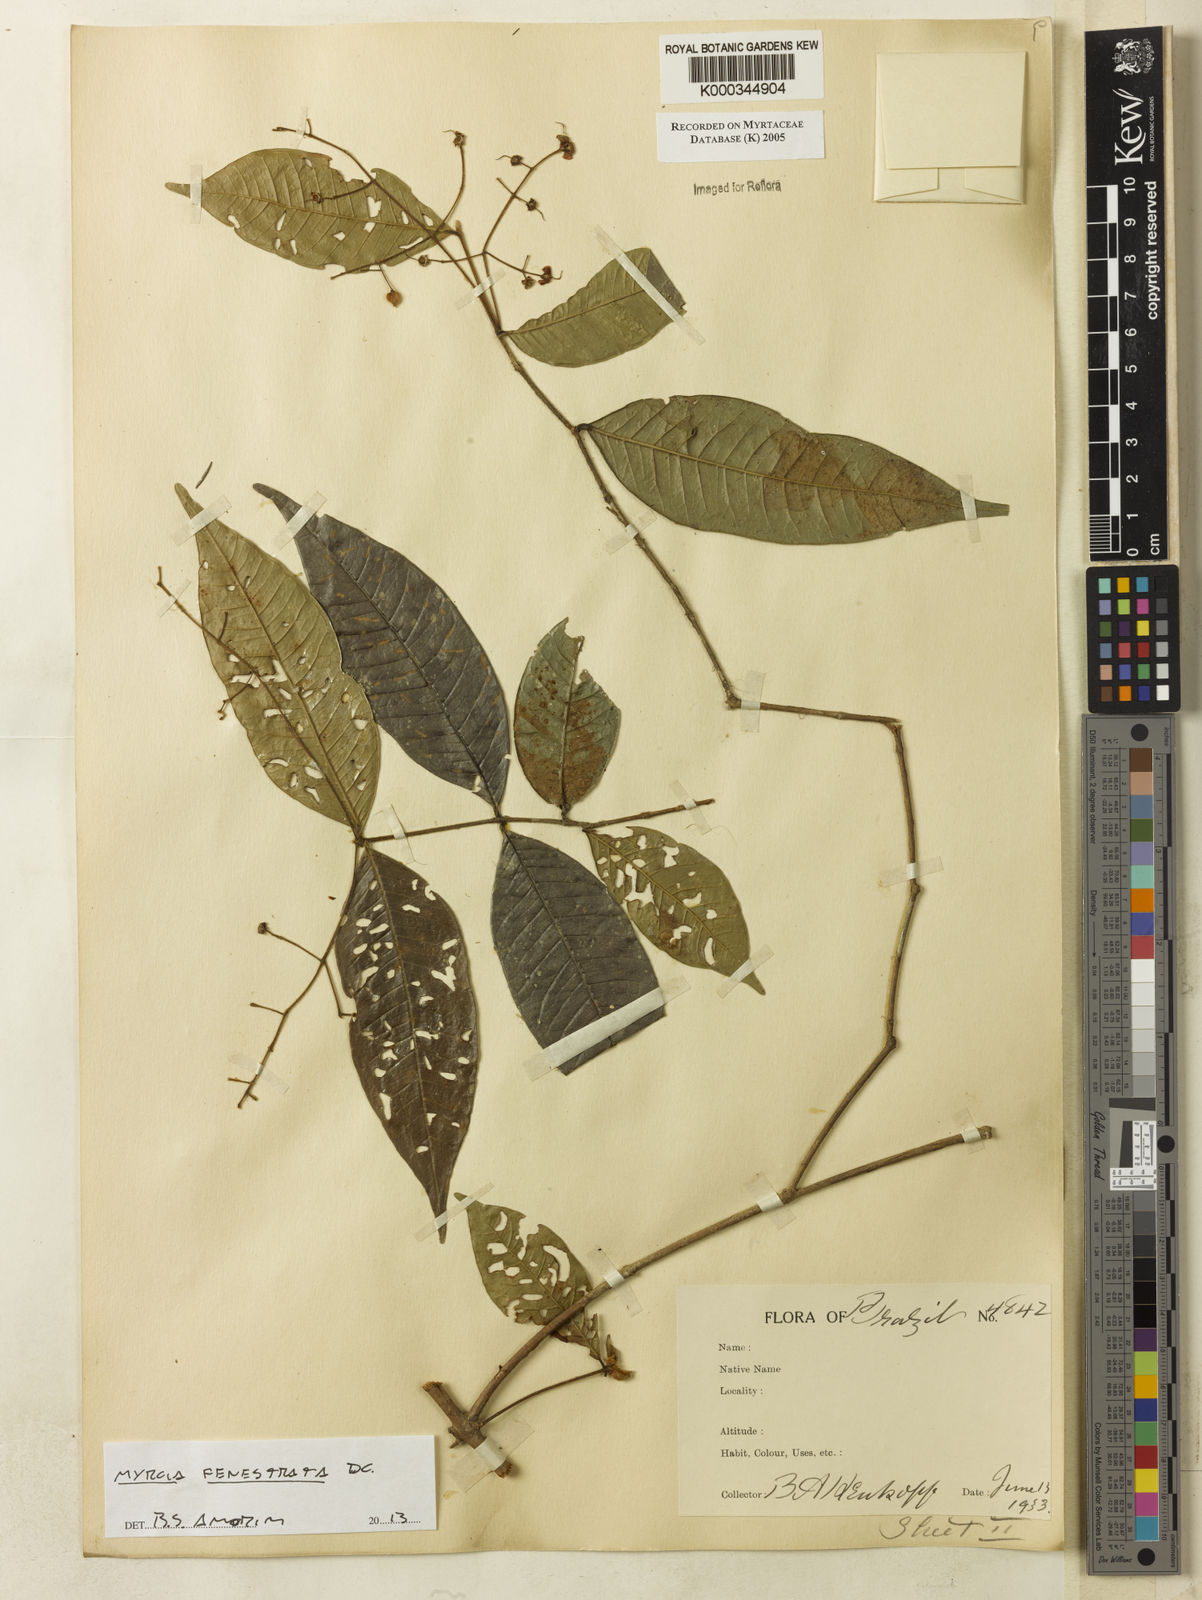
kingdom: Plantae
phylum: Tracheophyta
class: Magnoliopsida
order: Myrtales
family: Myrtaceae
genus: Myrcia
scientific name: Myrcia
